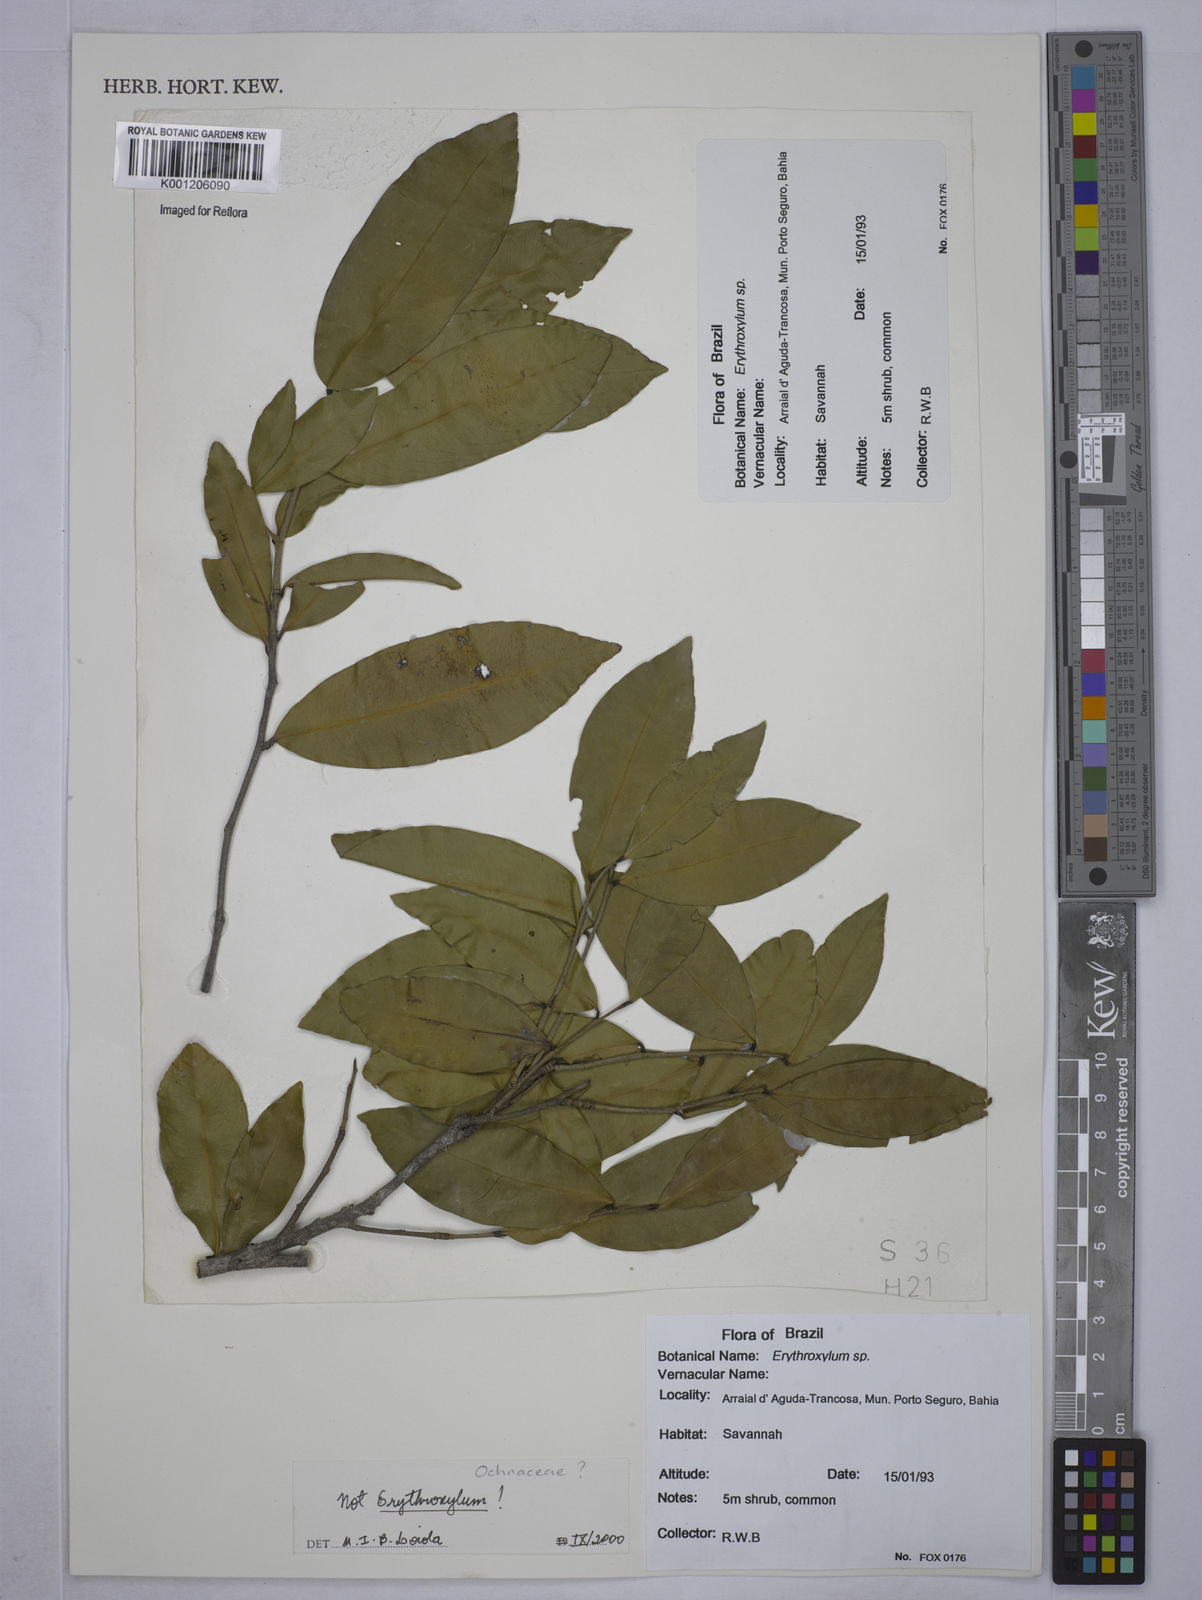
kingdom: Plantae
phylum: Tracheophyta
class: Magnoliopsida
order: Malpighiales
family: Ochnaceae
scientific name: Ochnaceae
